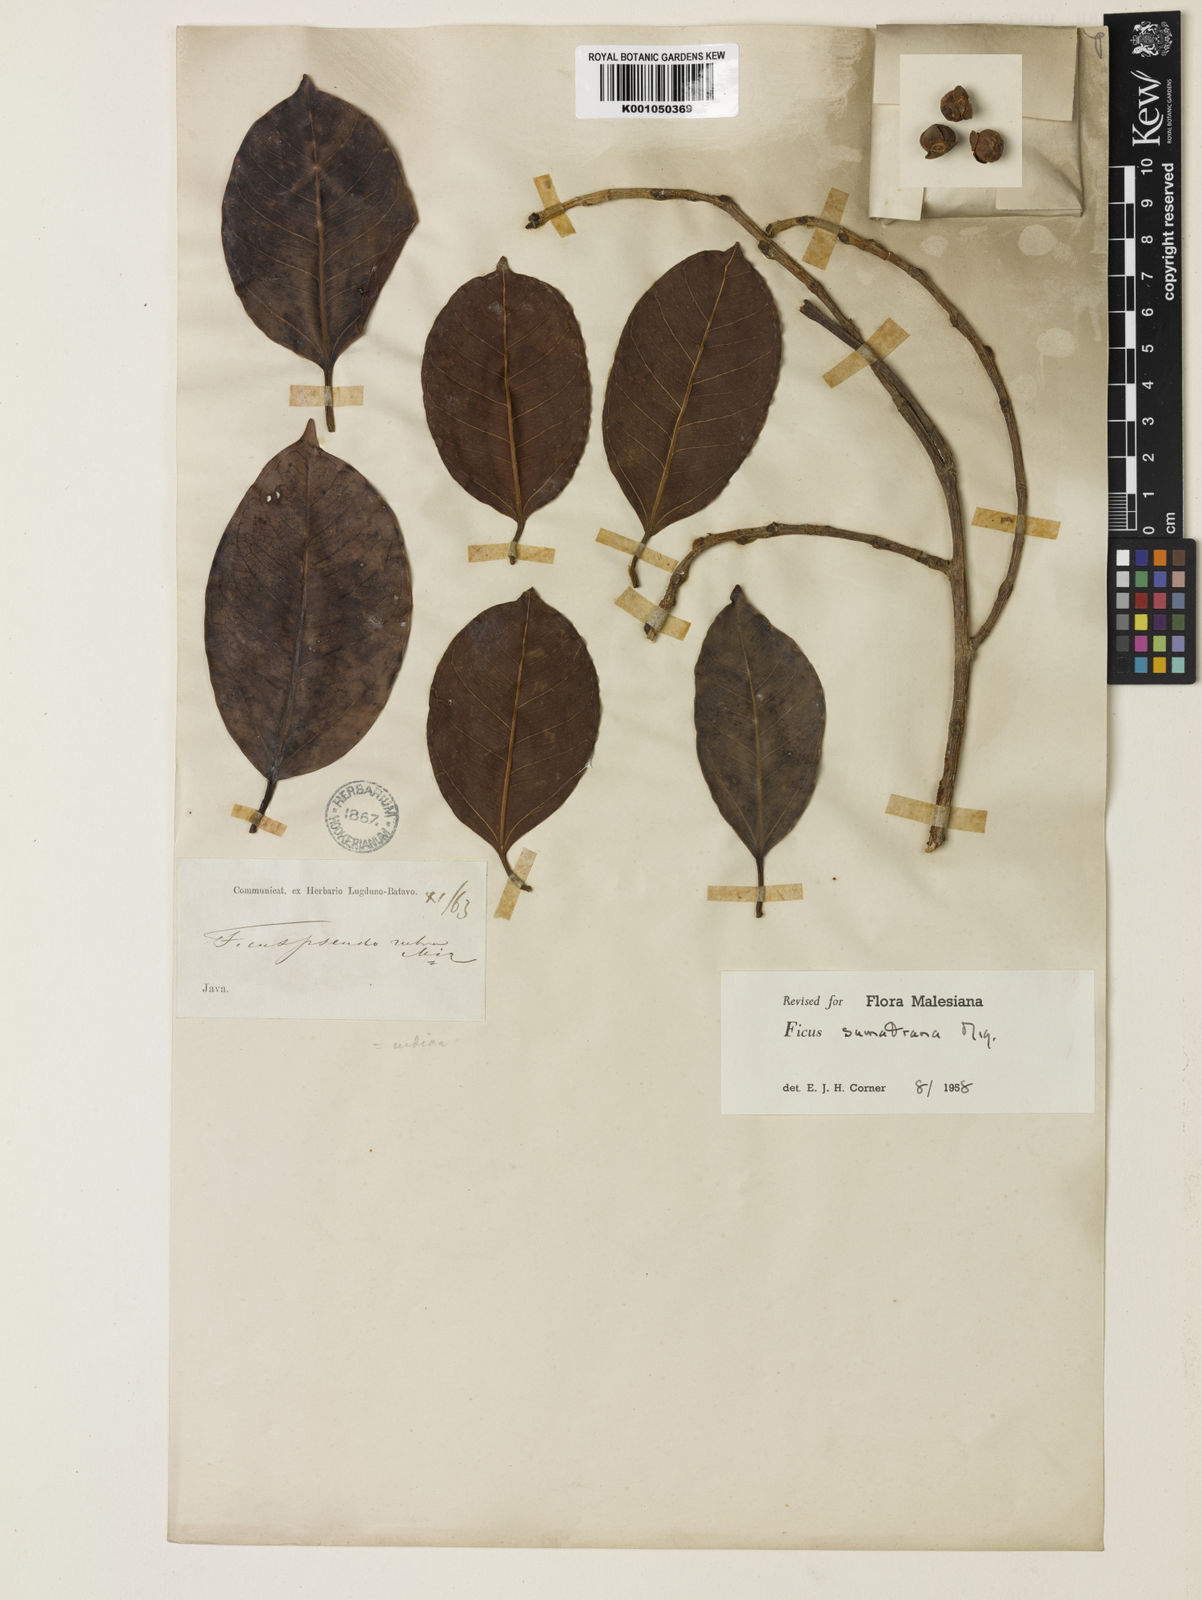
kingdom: Plantae
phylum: Tracheophyta
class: Magnoliopsida
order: Rosales
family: Moraceae
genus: Ficus
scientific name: Ficus sumatrana
